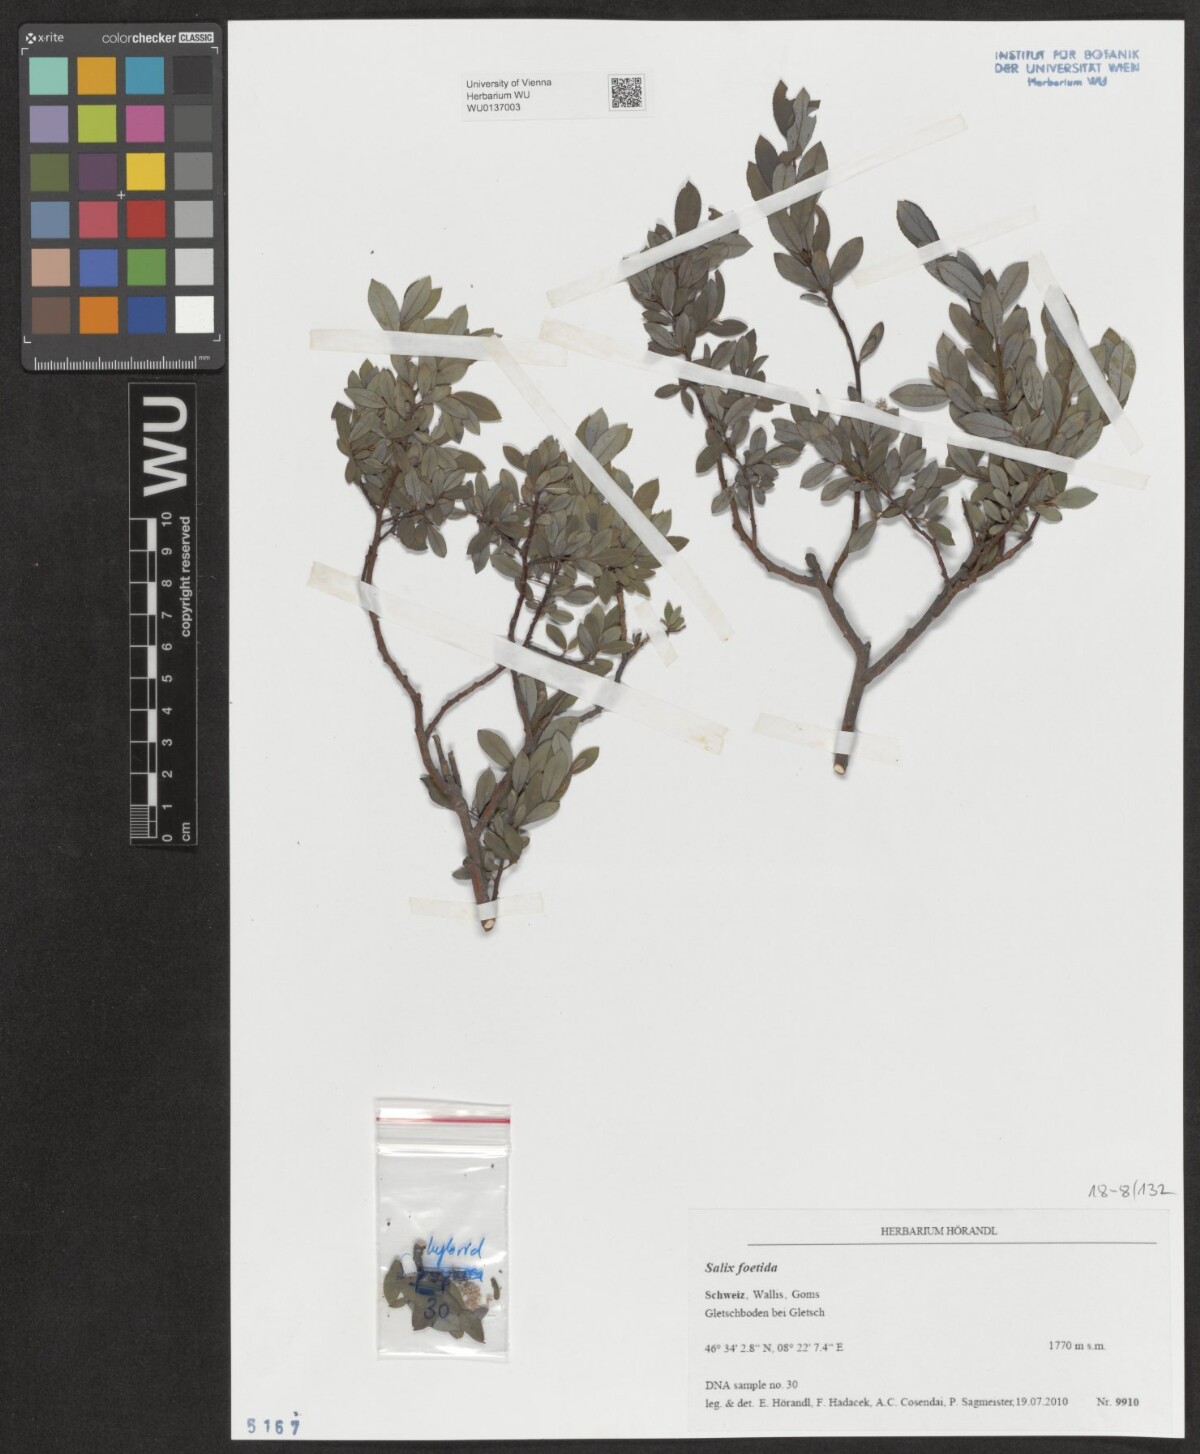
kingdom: Plantae
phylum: Tracheophyta
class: Magnoliopsida
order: Malpighiales
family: Salicaceae
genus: Salix
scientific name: Salix foetida
